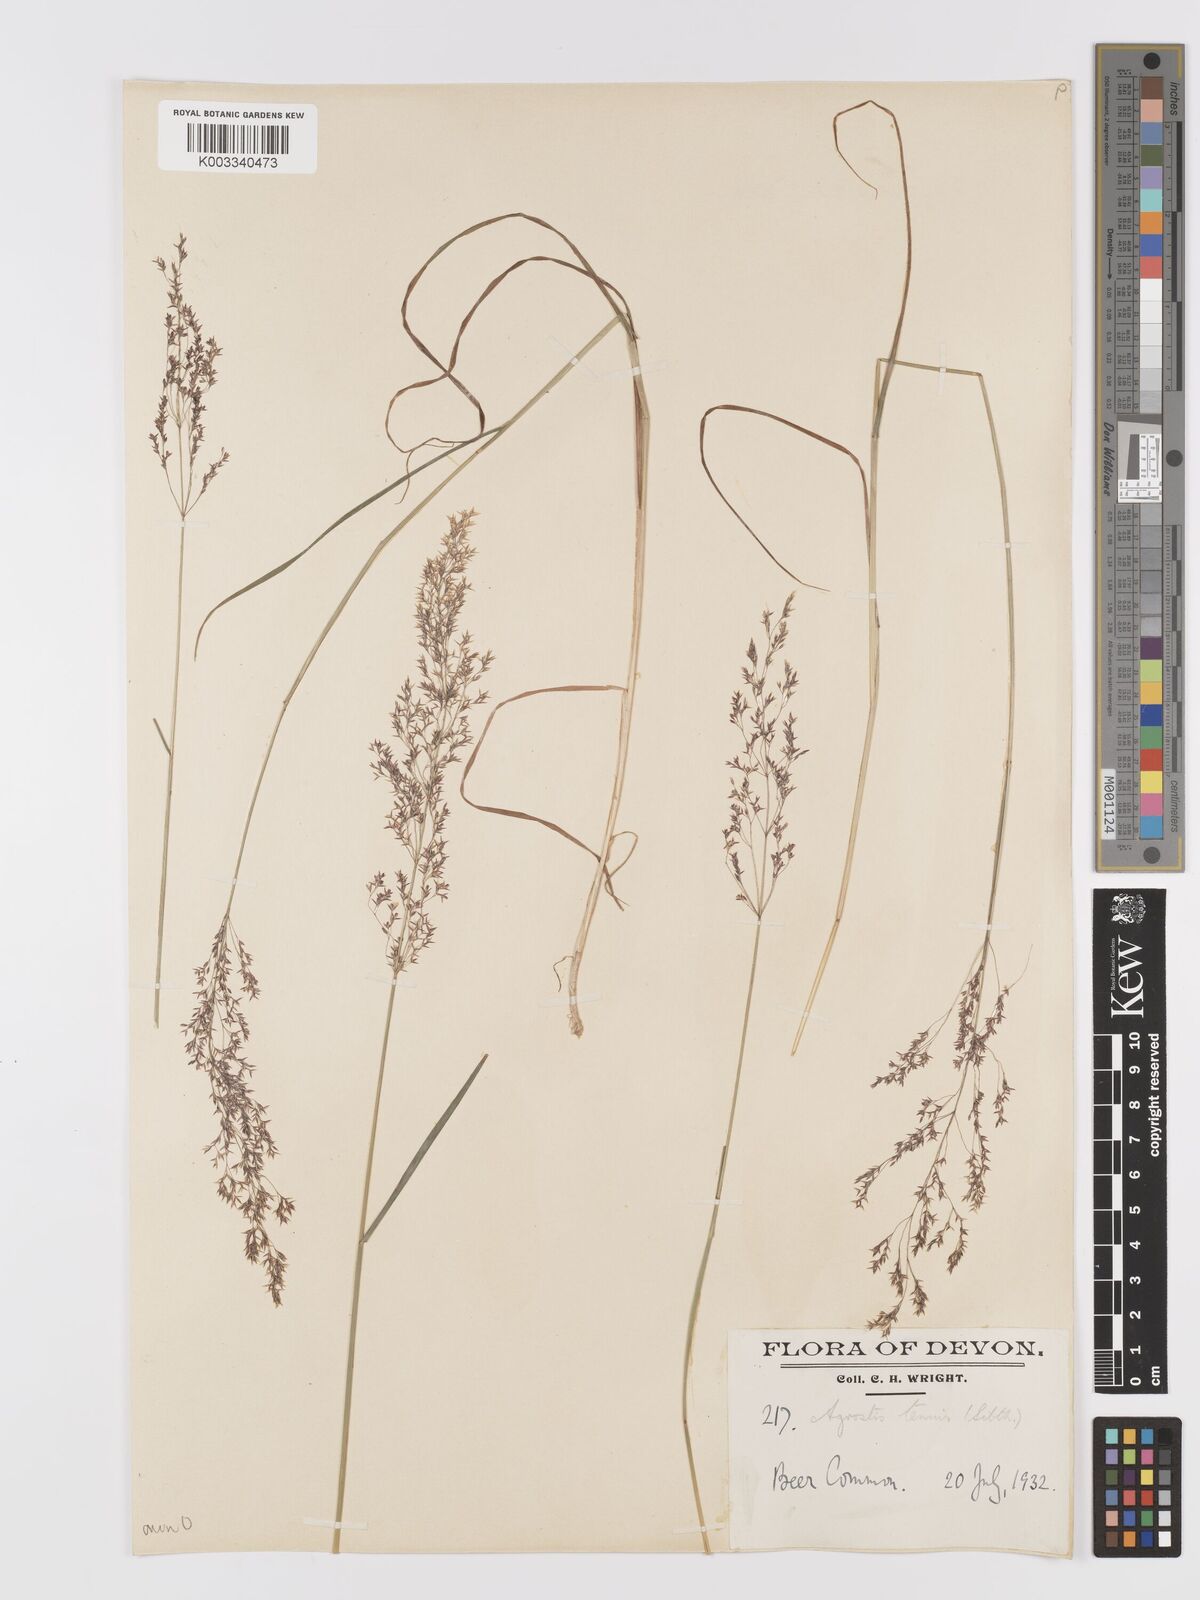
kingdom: Plantae
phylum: Tracheophyta
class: Liliopsida
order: Poales
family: Poaceae
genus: Agrostis
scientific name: Agrostis capillaris
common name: Colonial bentgrass
